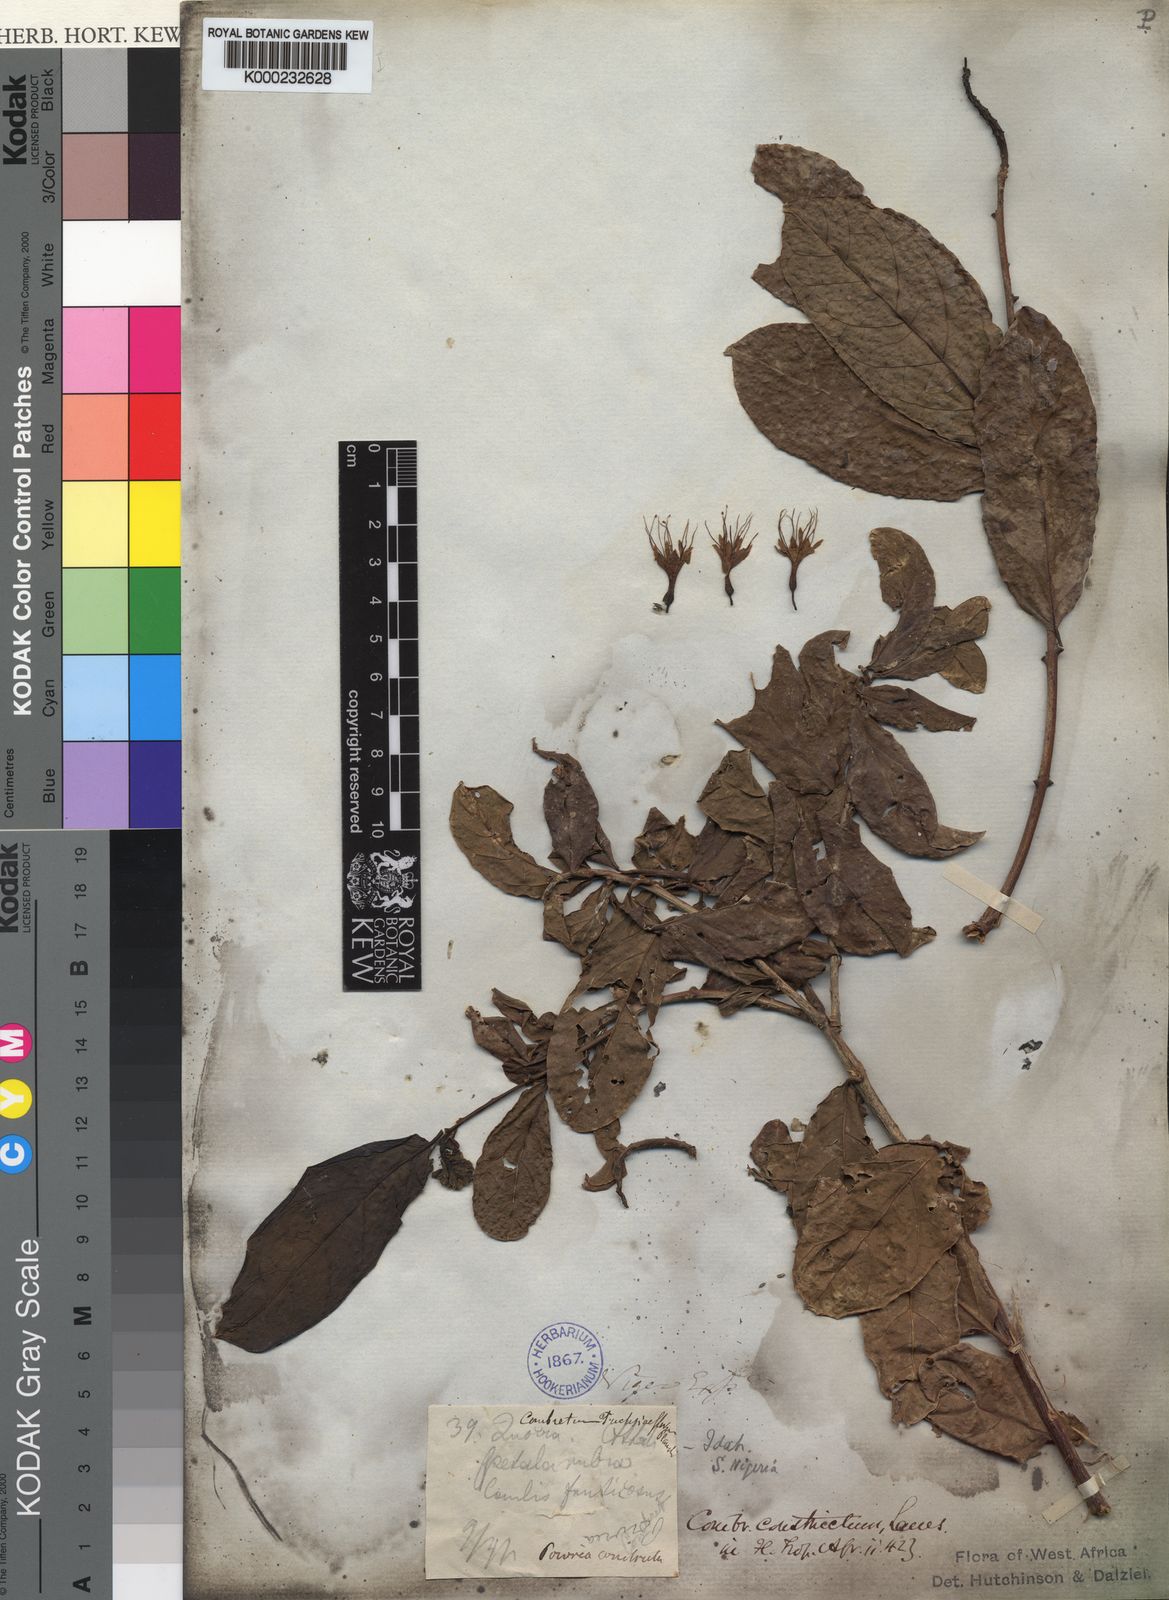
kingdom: Plantae
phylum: Tracheophyta
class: Magnoliopsida
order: Myrtales
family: Combretaceae
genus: Combretum
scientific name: Combretum constrictum
